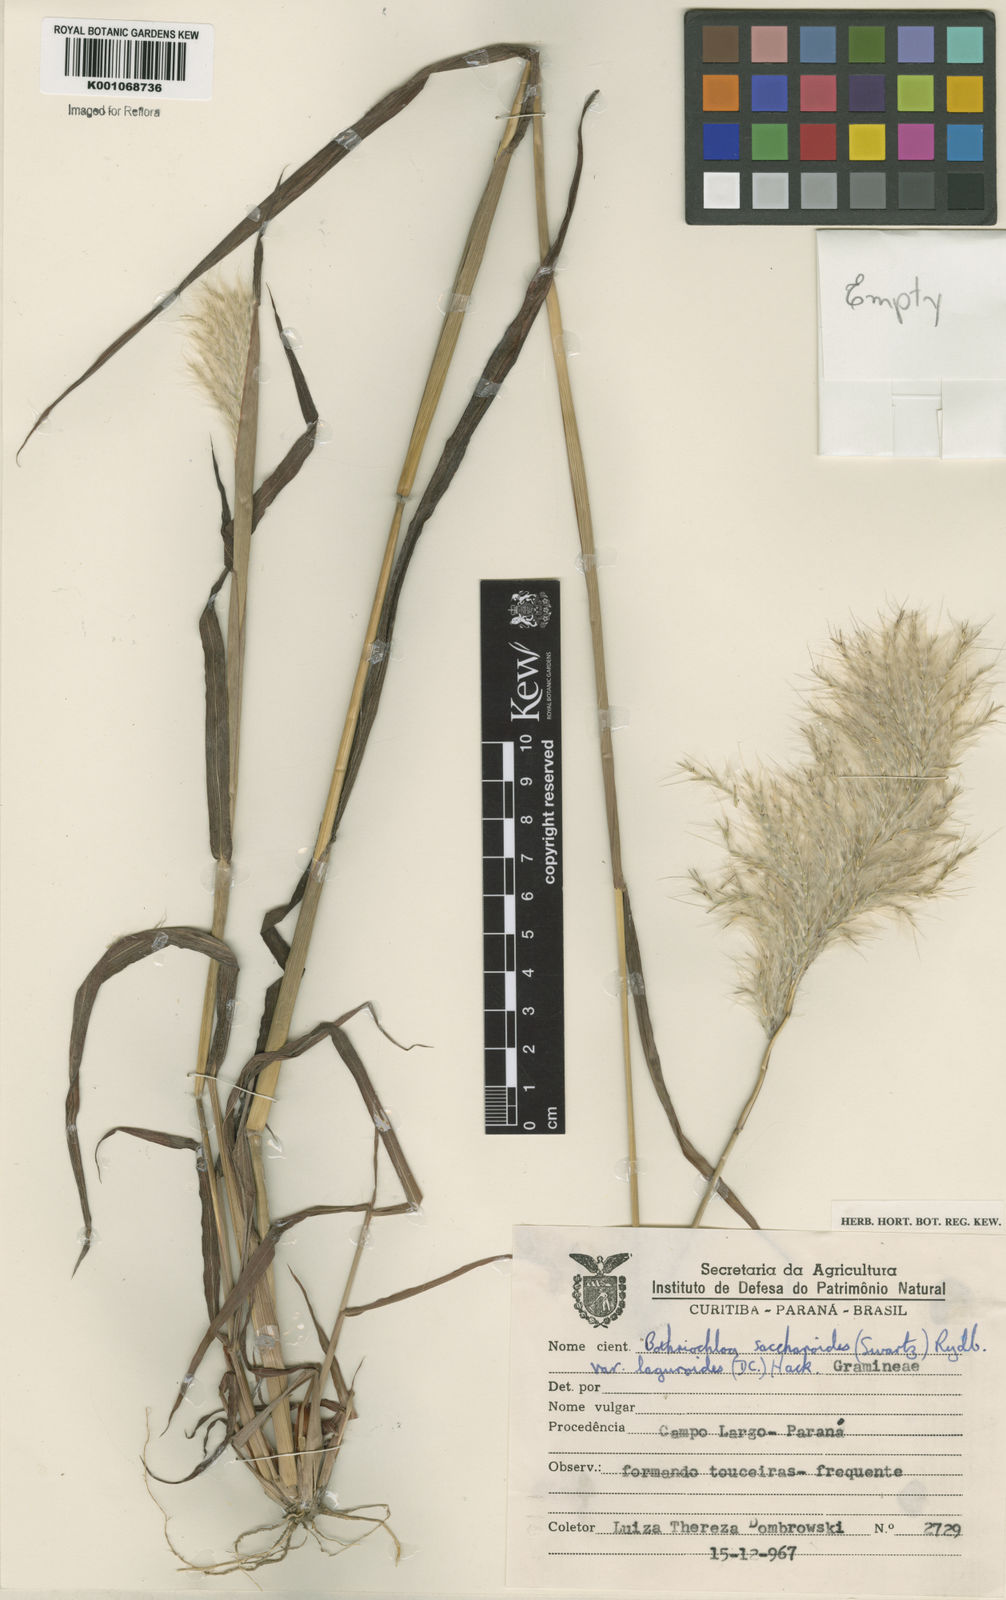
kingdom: Plantae
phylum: Tracheophyta
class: Liliopsida
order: Poales
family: Poaceae
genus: Bothriochloa
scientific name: Bothriochloa laguroides
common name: Silver bluestem
